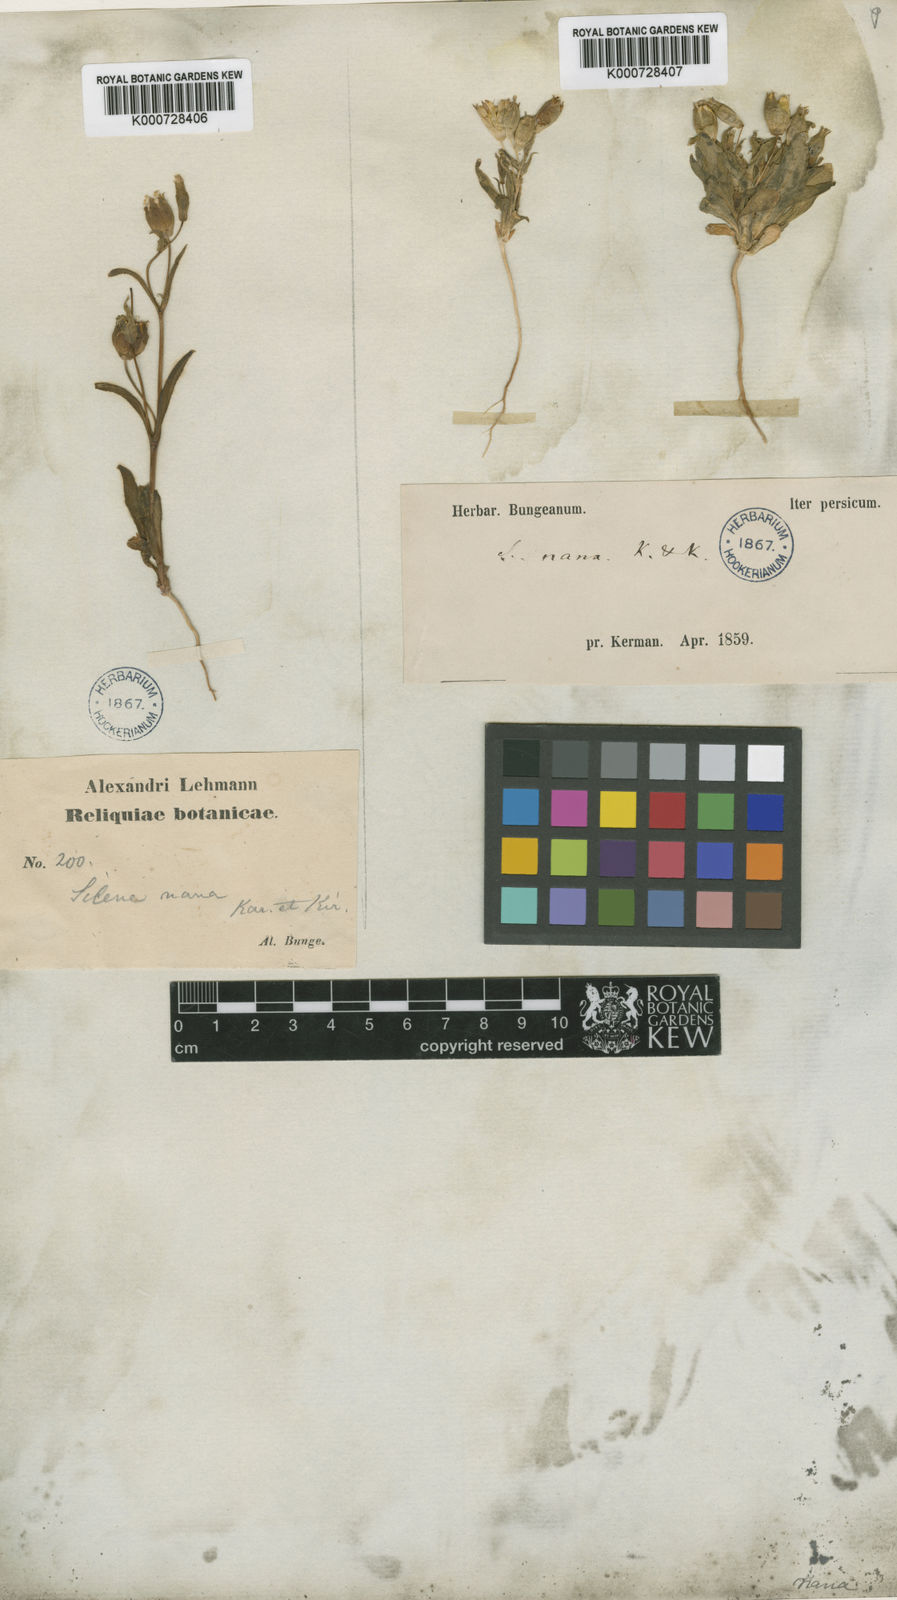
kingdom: Plantae
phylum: Tracheophyta
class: Magnoliopsida
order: Caryophyllales
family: Caryophyllaceae
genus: Silene
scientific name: Silene nana
